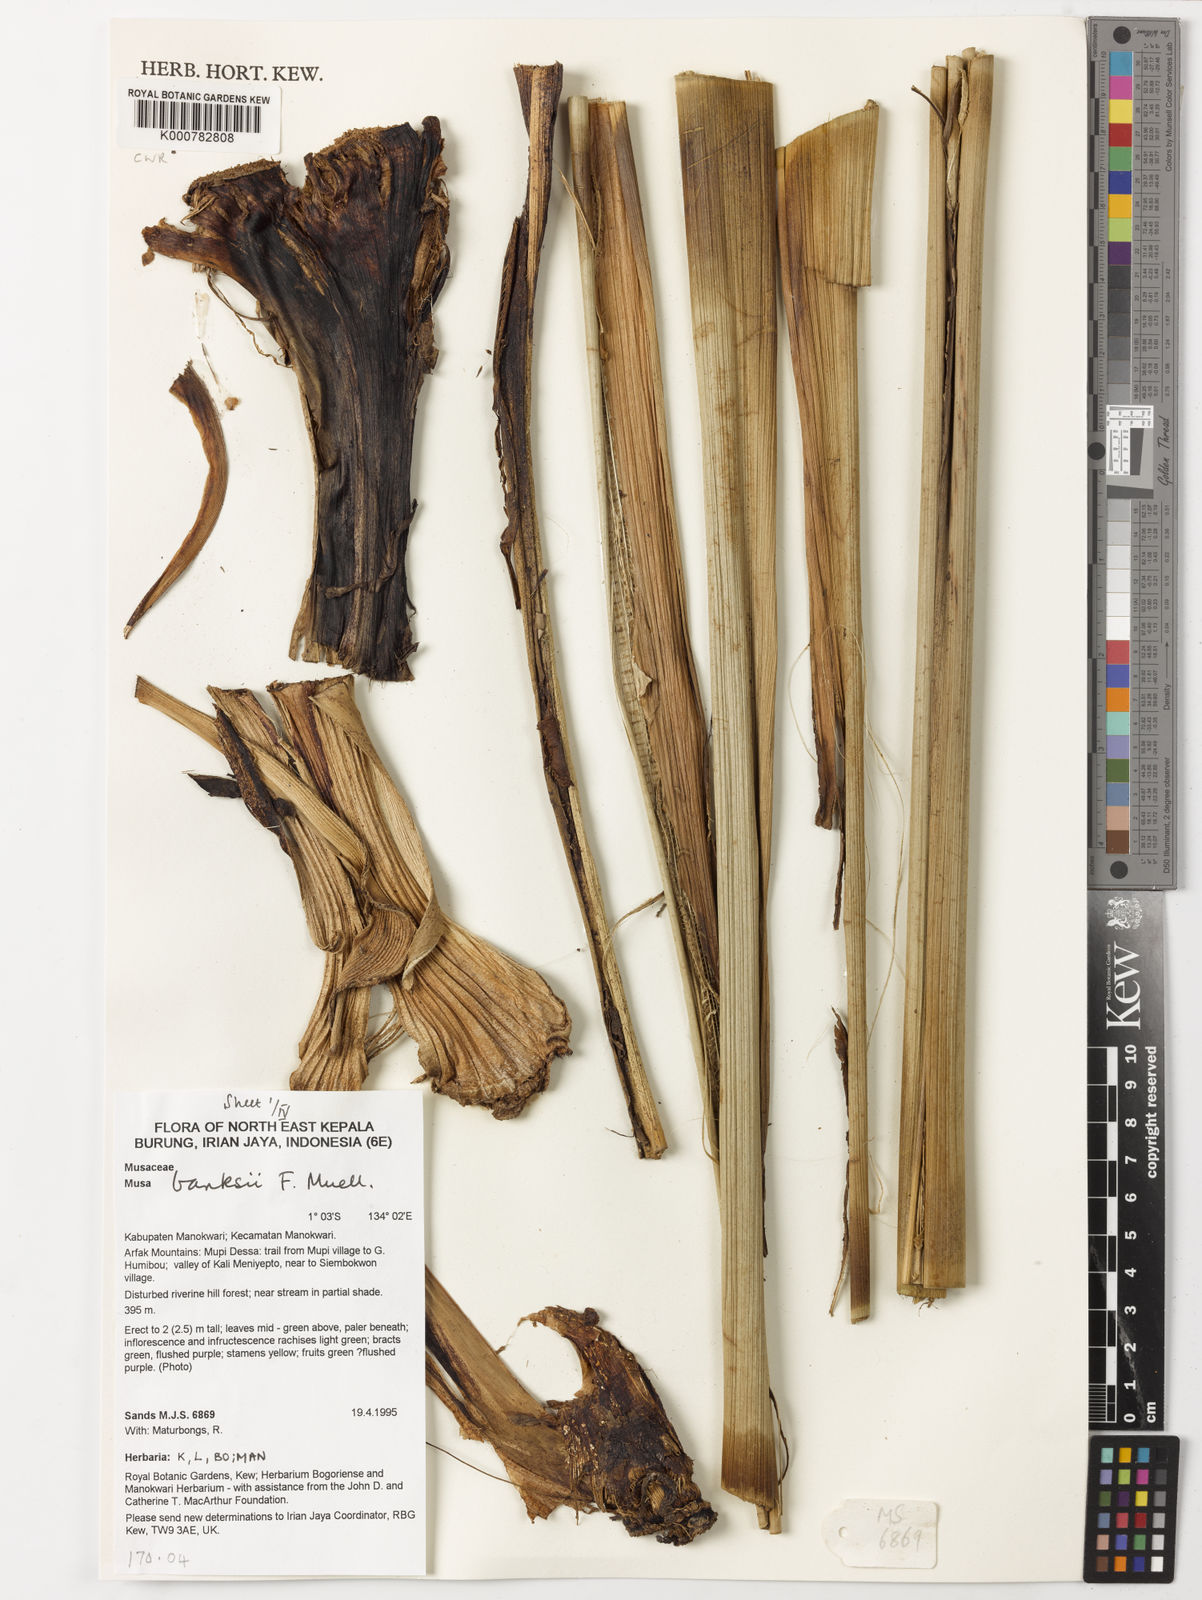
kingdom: Plantae
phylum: Tracheophyta
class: Liliopsida
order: Zingiberales
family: Musaceae
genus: Musa
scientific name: Musa banksii
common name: Maroon-stemmed banana
